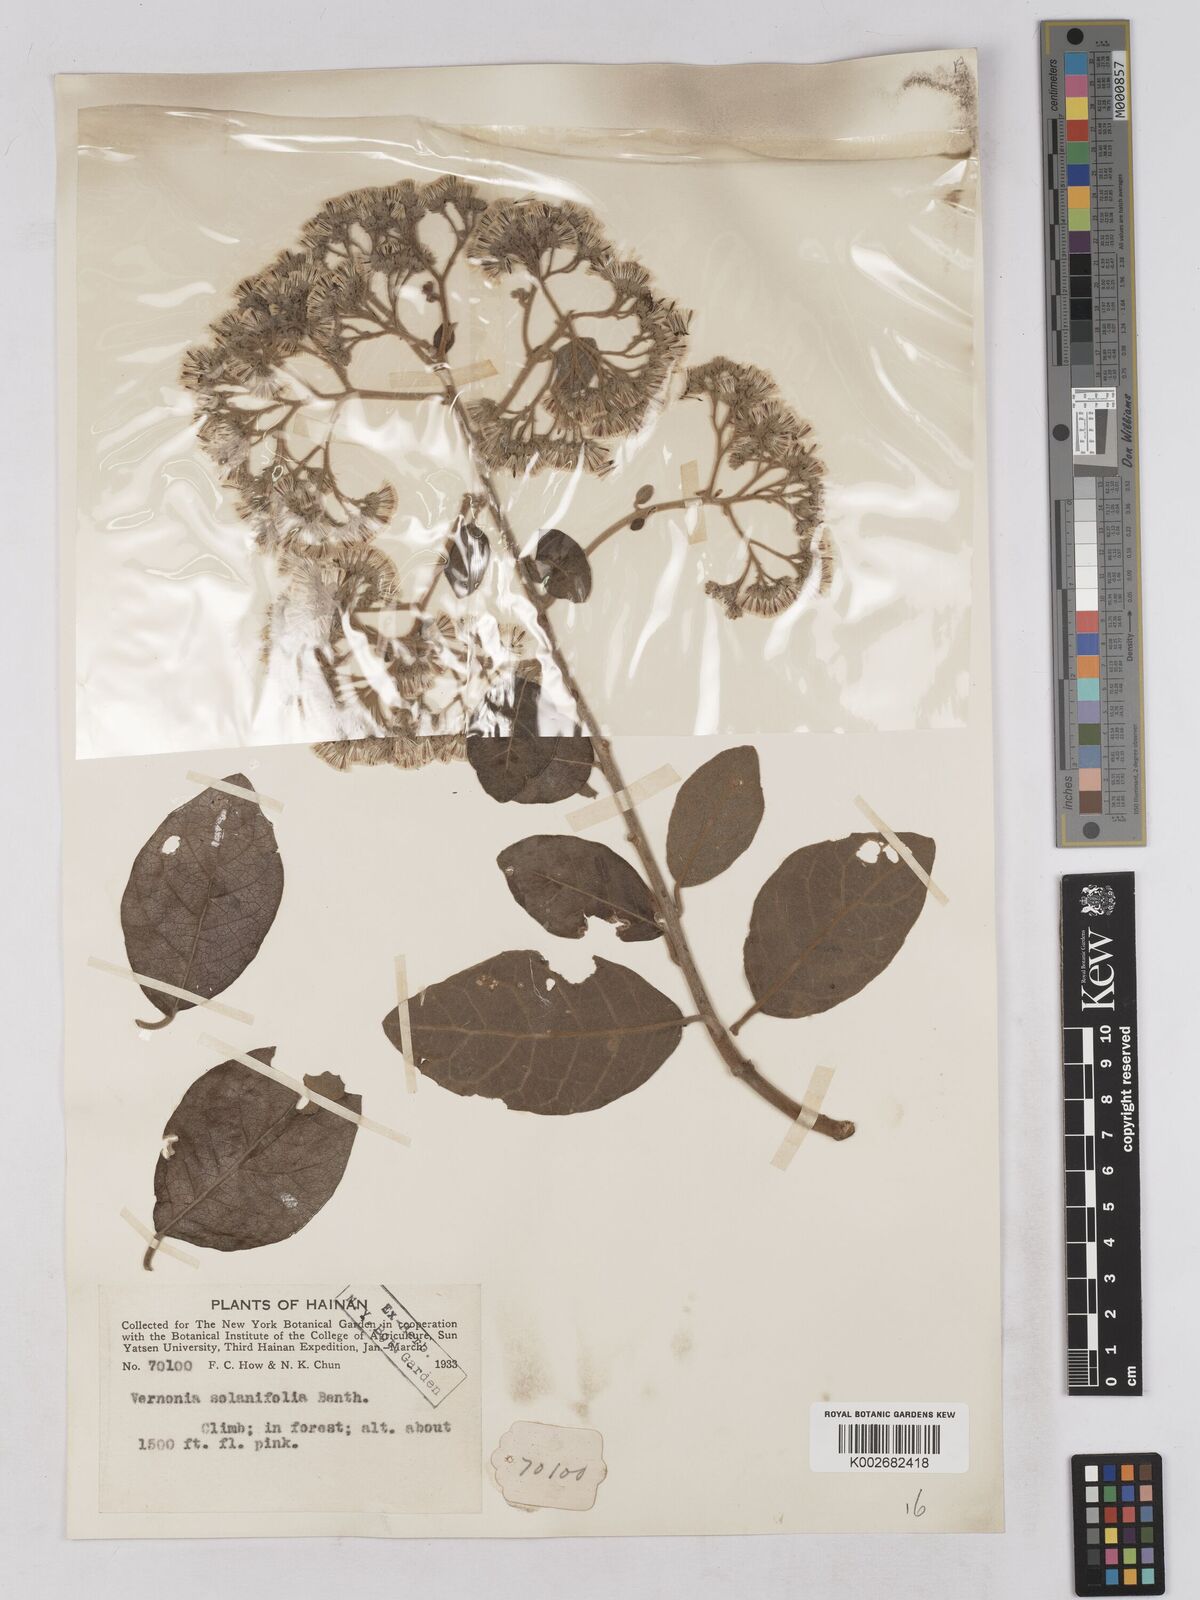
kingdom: Plantae
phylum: Tracheophyta
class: Magnoliopsida
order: Asterales
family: Asteraceae
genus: Strobocalyx
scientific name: Strobocalyx solanifolia
